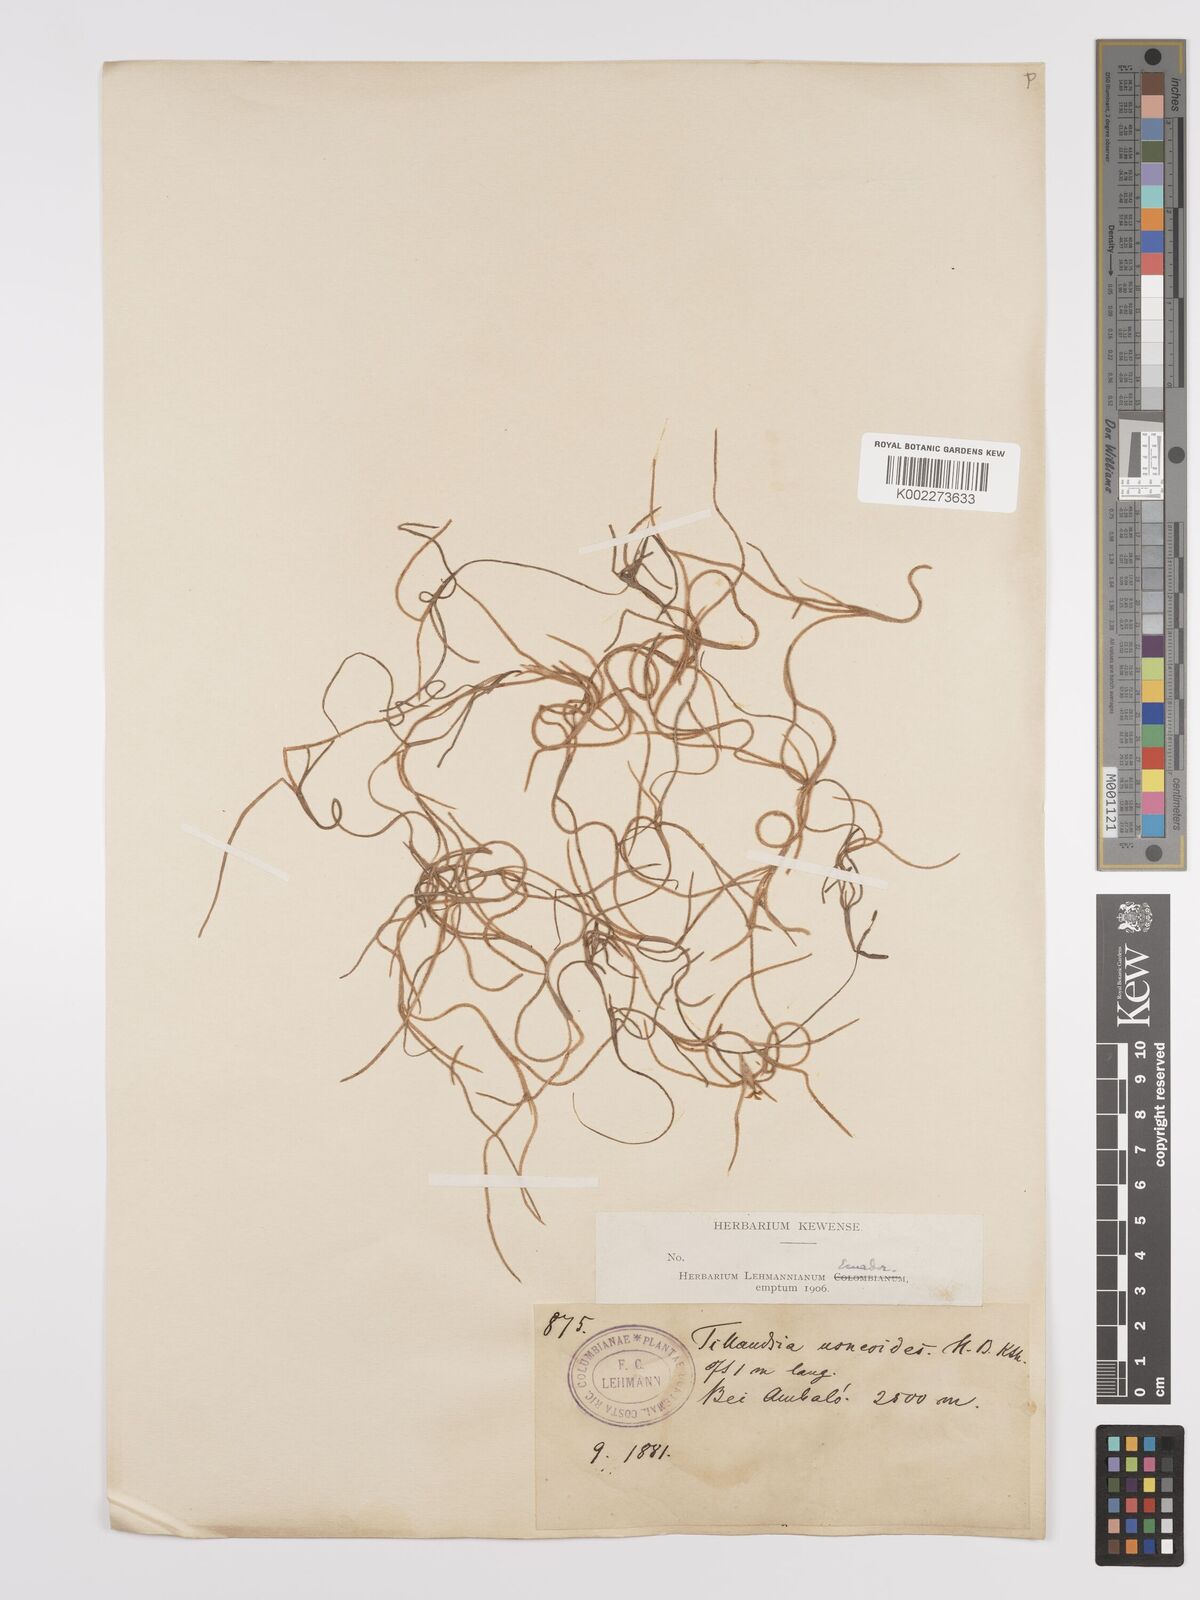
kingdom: Plantae
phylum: Tracheophyta
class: Liliopsida
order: Poales
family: Bromeliaceae
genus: Tillandsia
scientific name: Tillandsia usneoides
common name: Spanish moss
